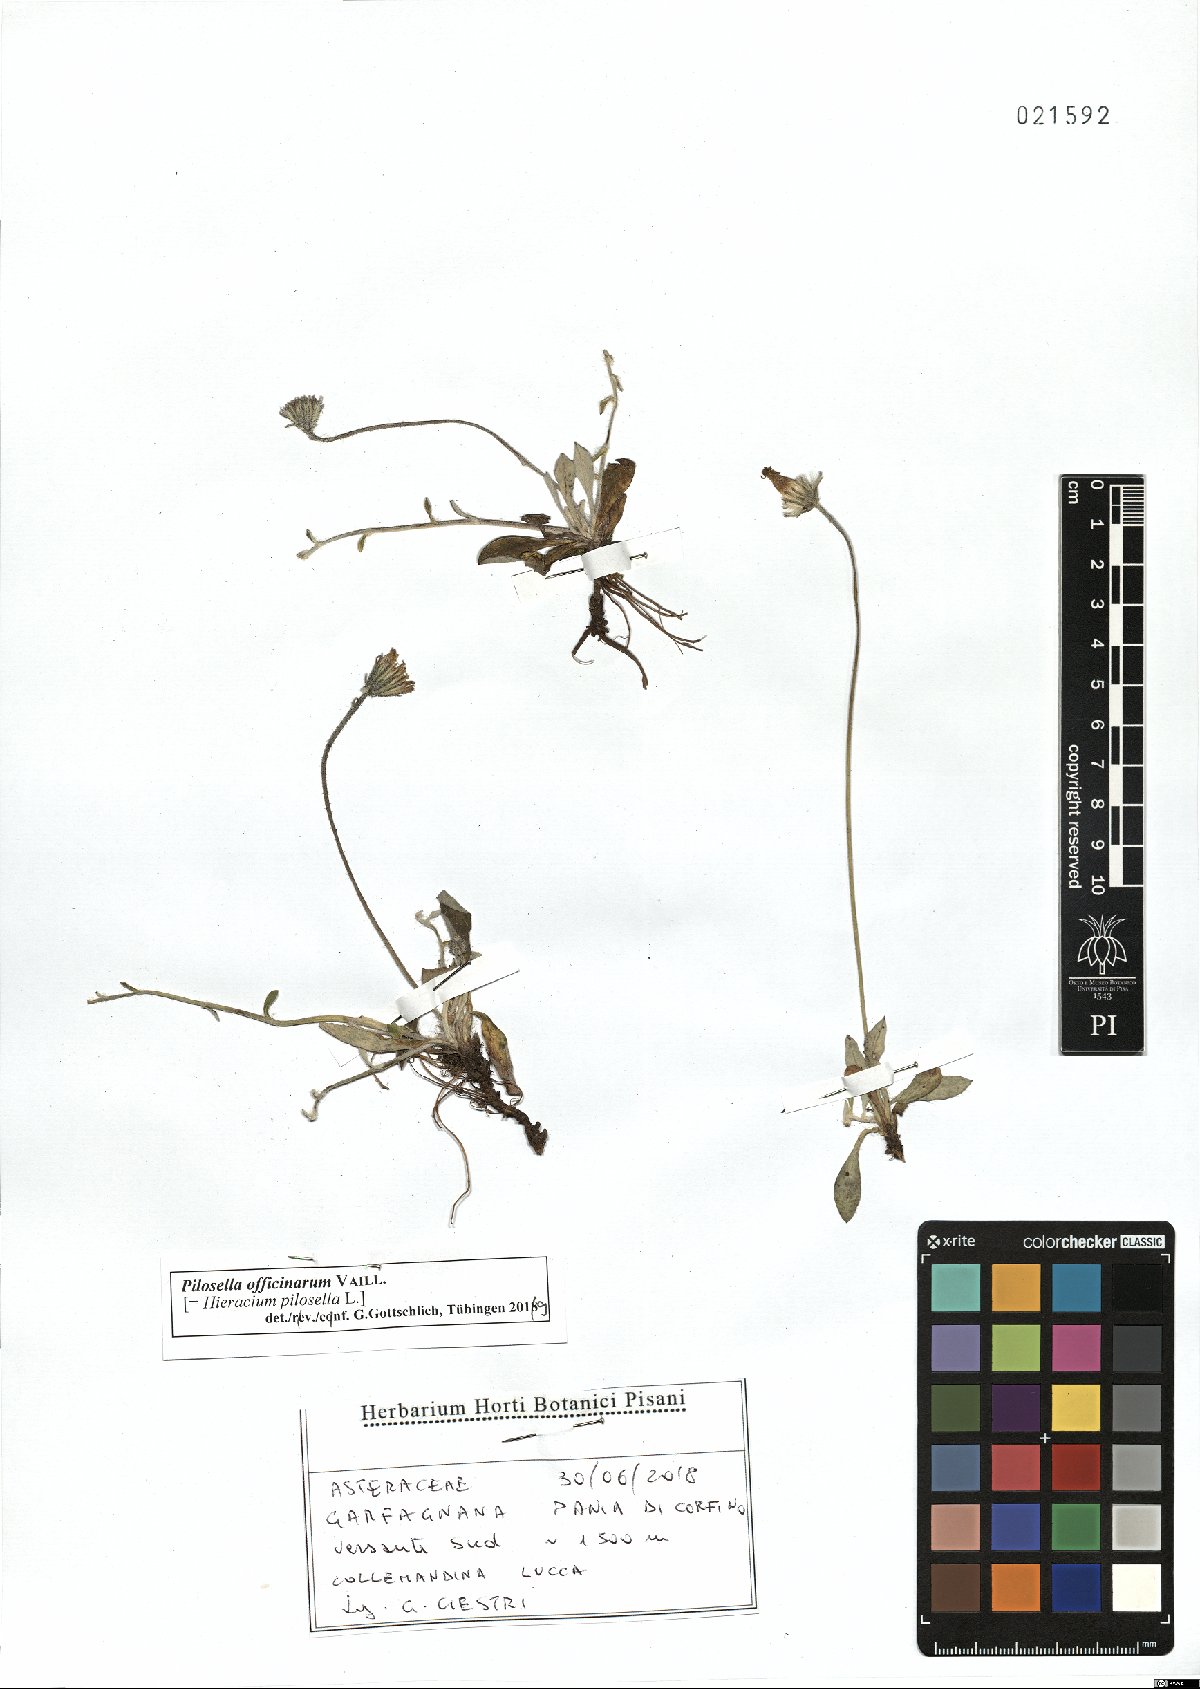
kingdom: Plantae
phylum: Tracheophyta
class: Magnoliopsida
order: Asterales
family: Asteraceae
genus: Pilosella
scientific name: Pilosella officinarum
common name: Mouse-ear hawkweed
